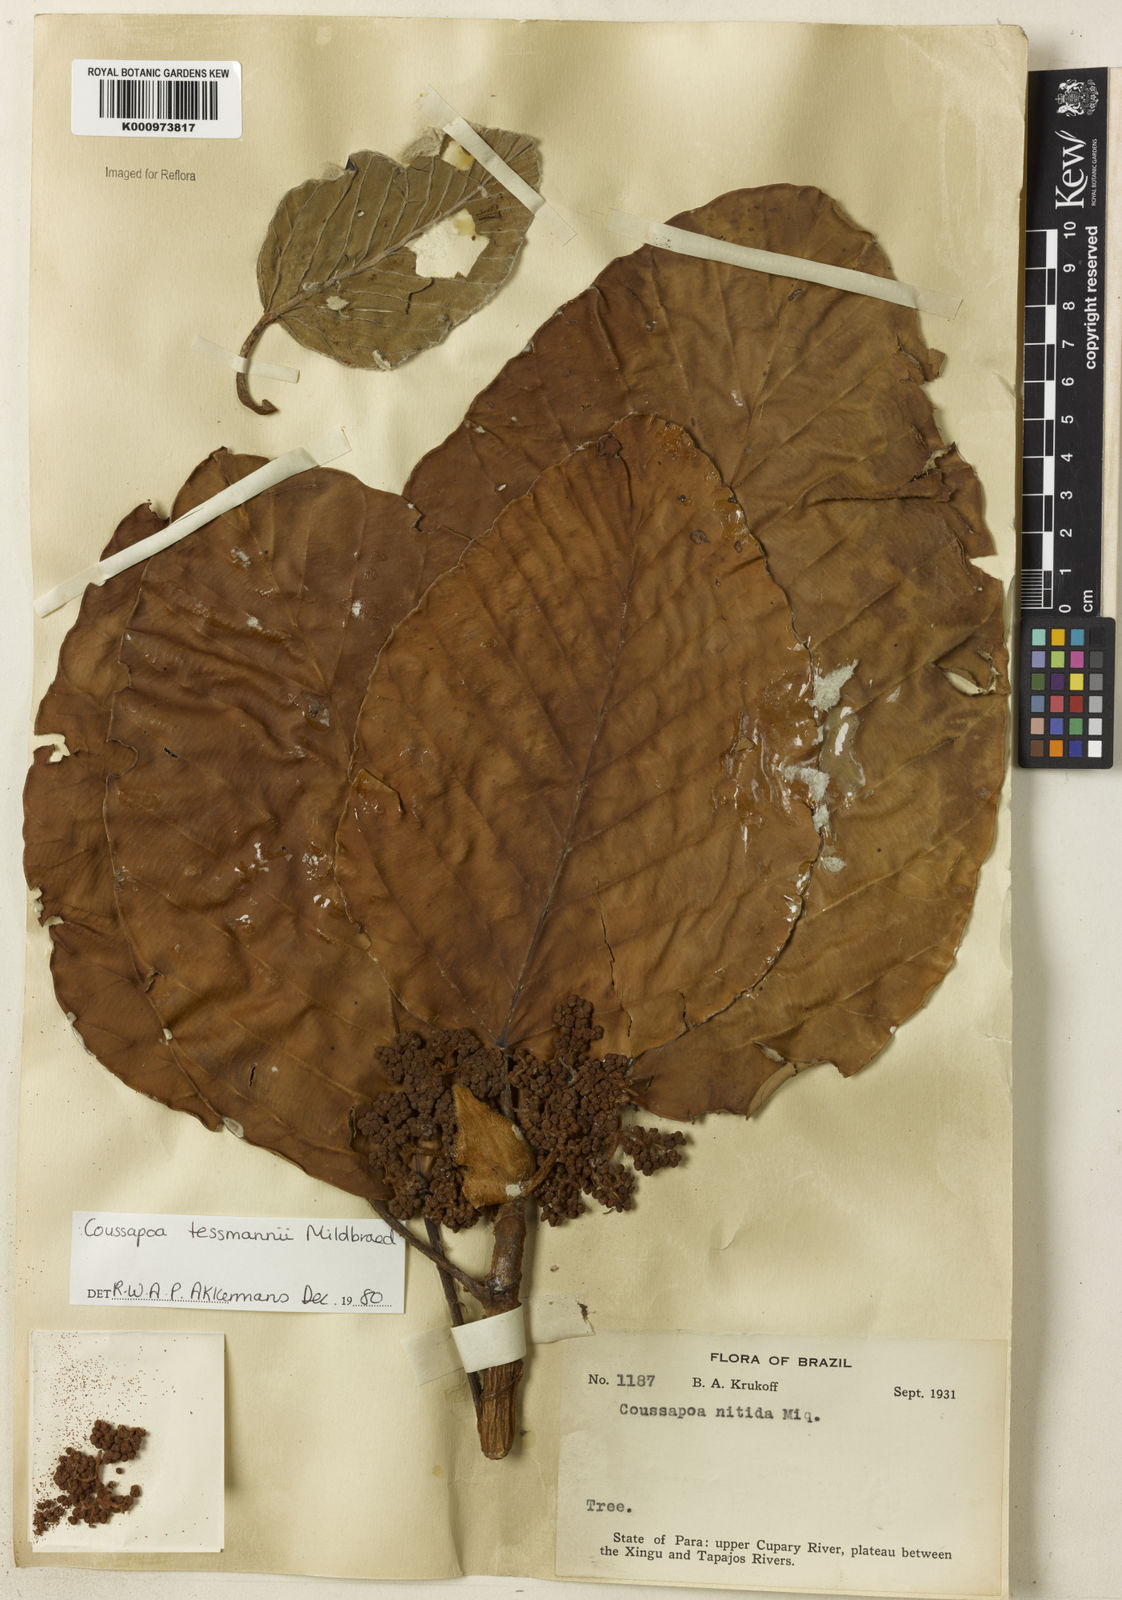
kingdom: Plantae
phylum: Tracheophyta
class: Magnoliopsida
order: Rosales
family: Urticaceae
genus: Coussapoa
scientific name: Coussapoa tessmannii
